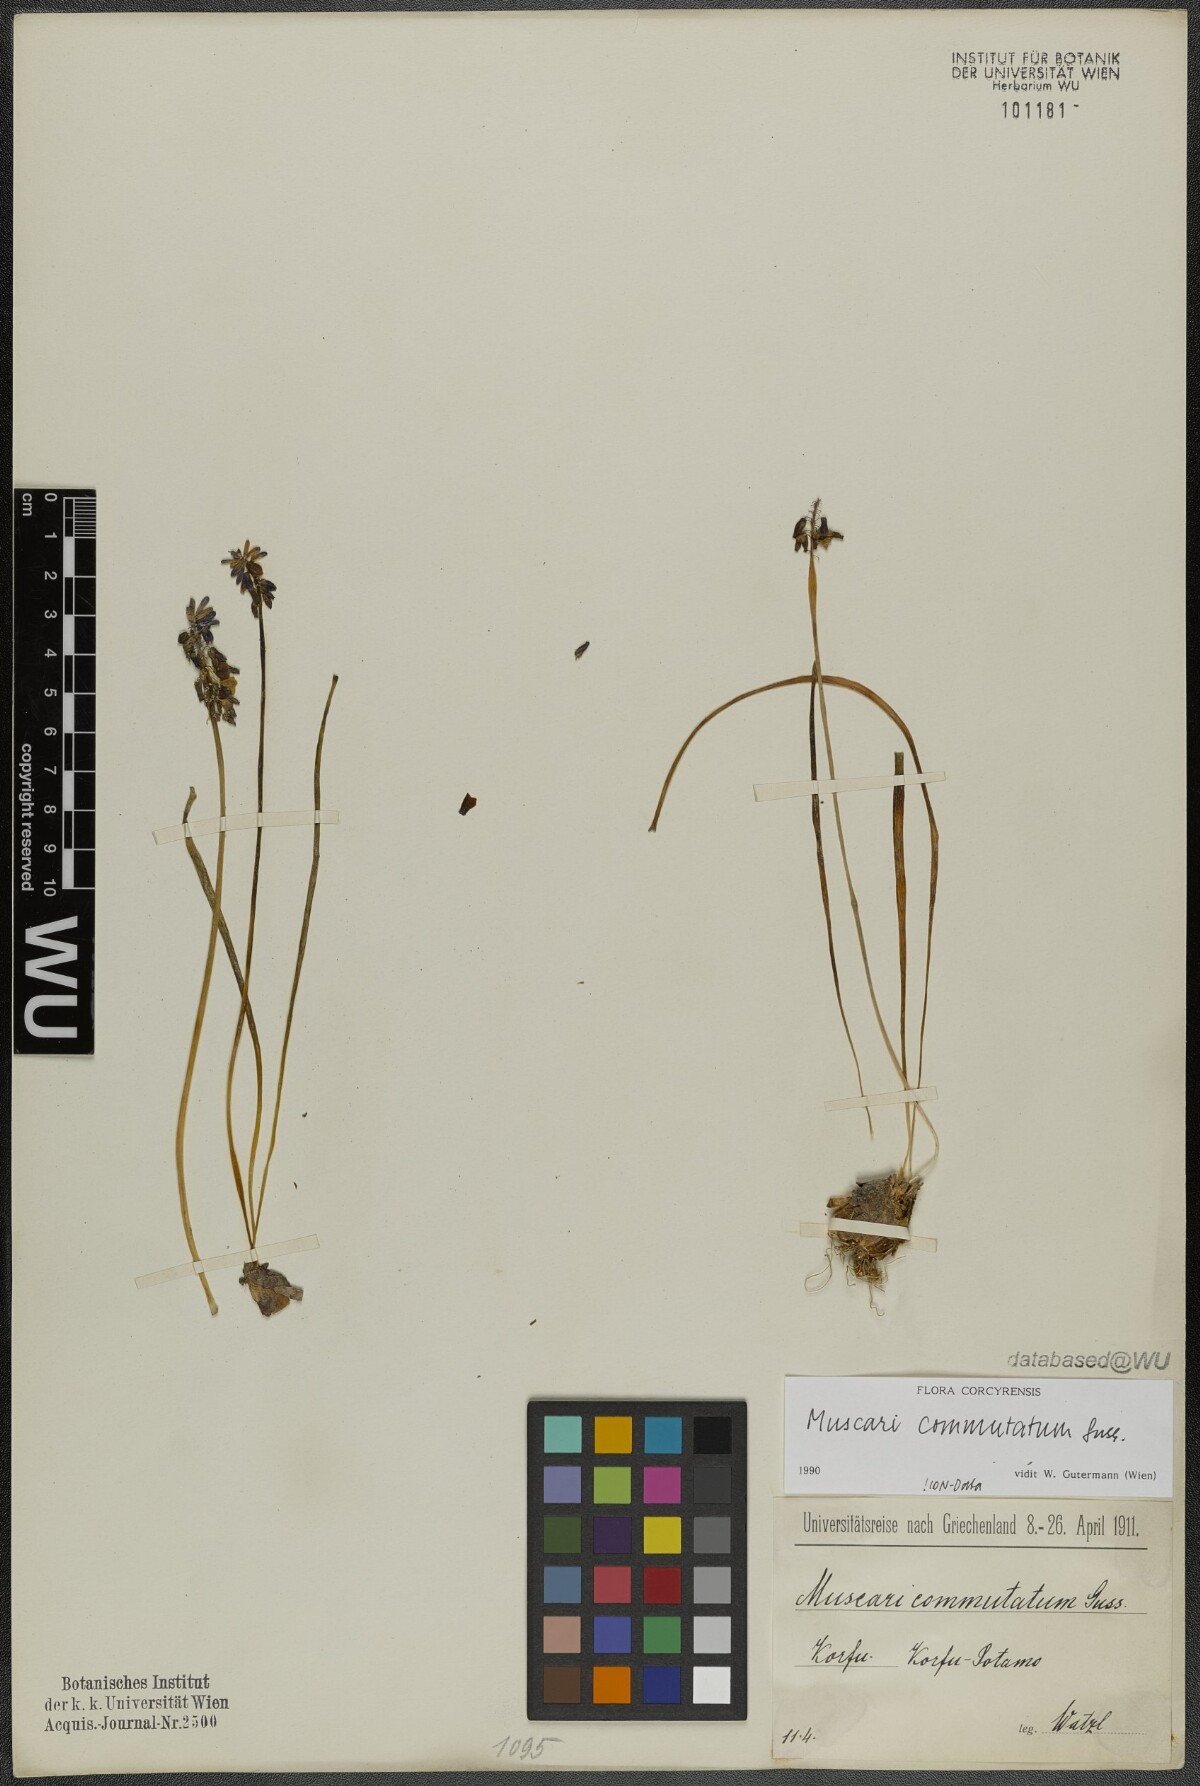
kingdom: Plantae
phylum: Tracheophyta
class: Liliopsida
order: Asparagales
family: Asparagaceae
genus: Muscari
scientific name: Muscari commutatum
